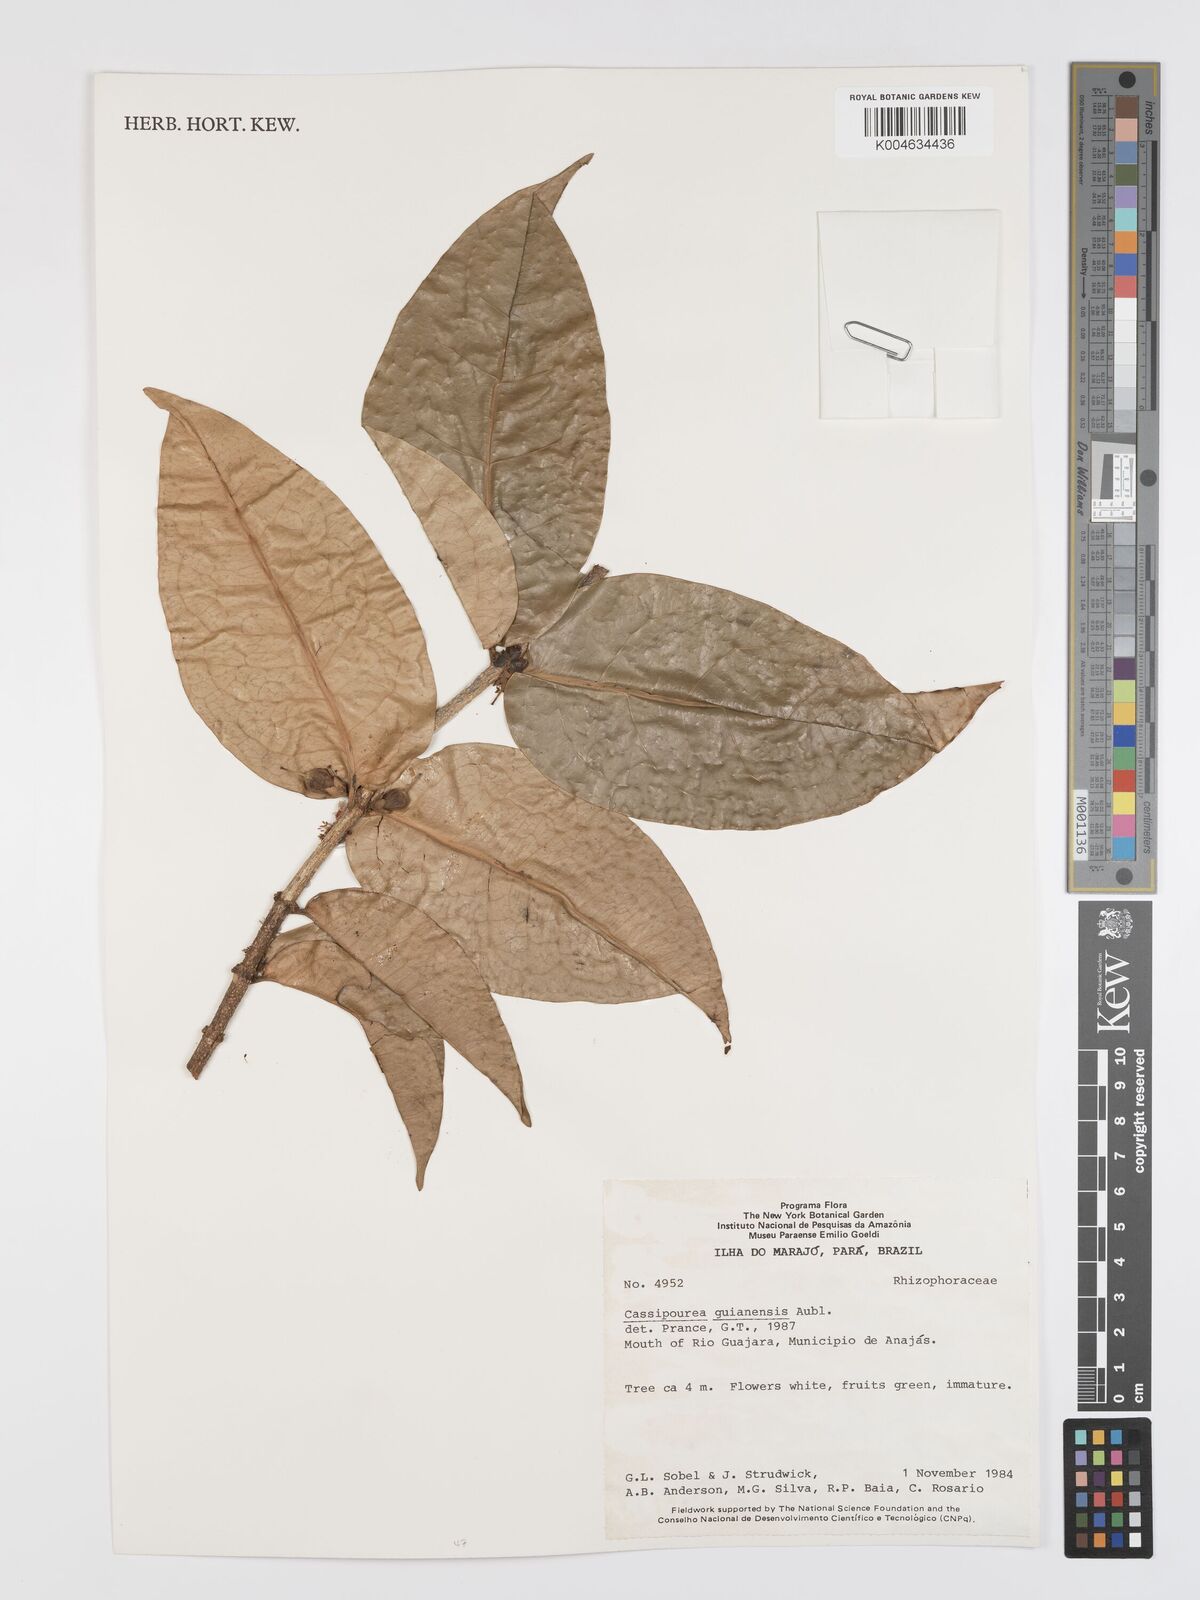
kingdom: Plantae
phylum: Tracheophyta
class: Magnoliopsida
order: Malpighiales
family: Rhizophoraceae
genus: Cassipourea
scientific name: Cassipourea guianensis
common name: Bastard waterwood
